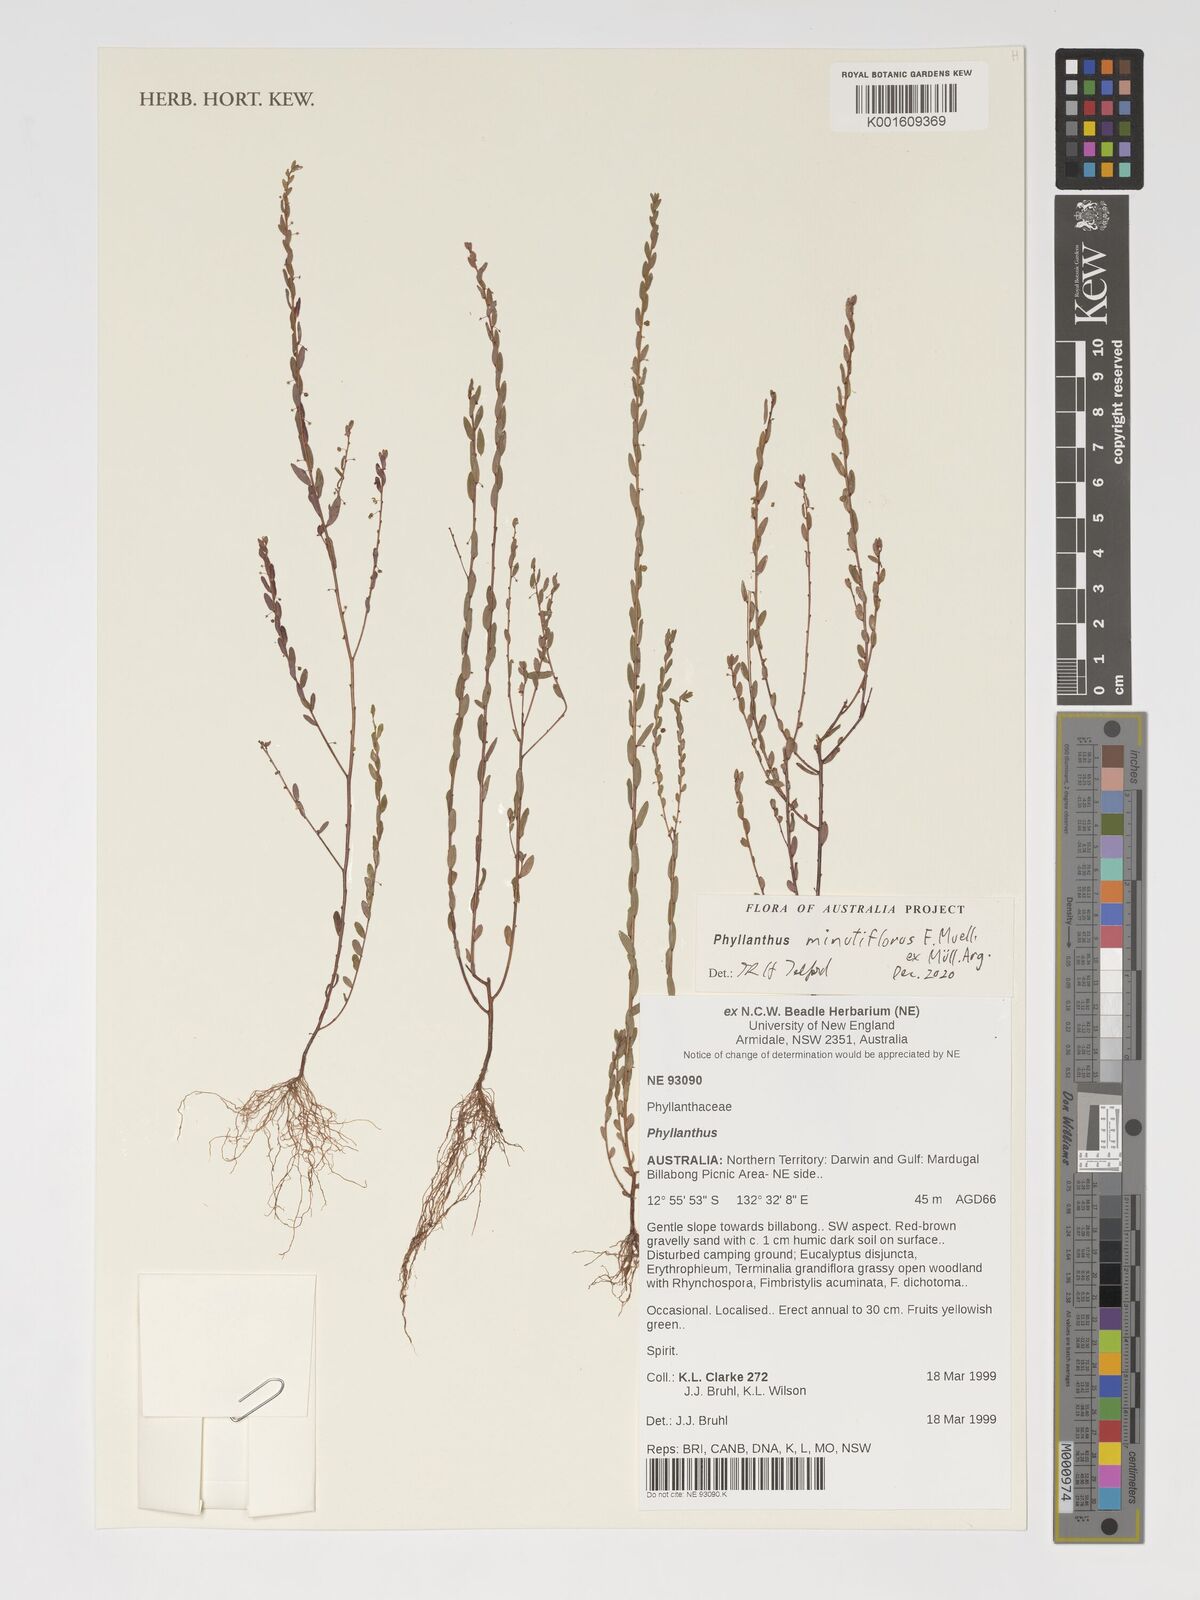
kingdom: Plantae
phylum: Tracheophyta
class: Magnoliopsida
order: Malpighiales
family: Phyllanthaceae
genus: Phyllanthus
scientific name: Phyllanthus minutiflorus
